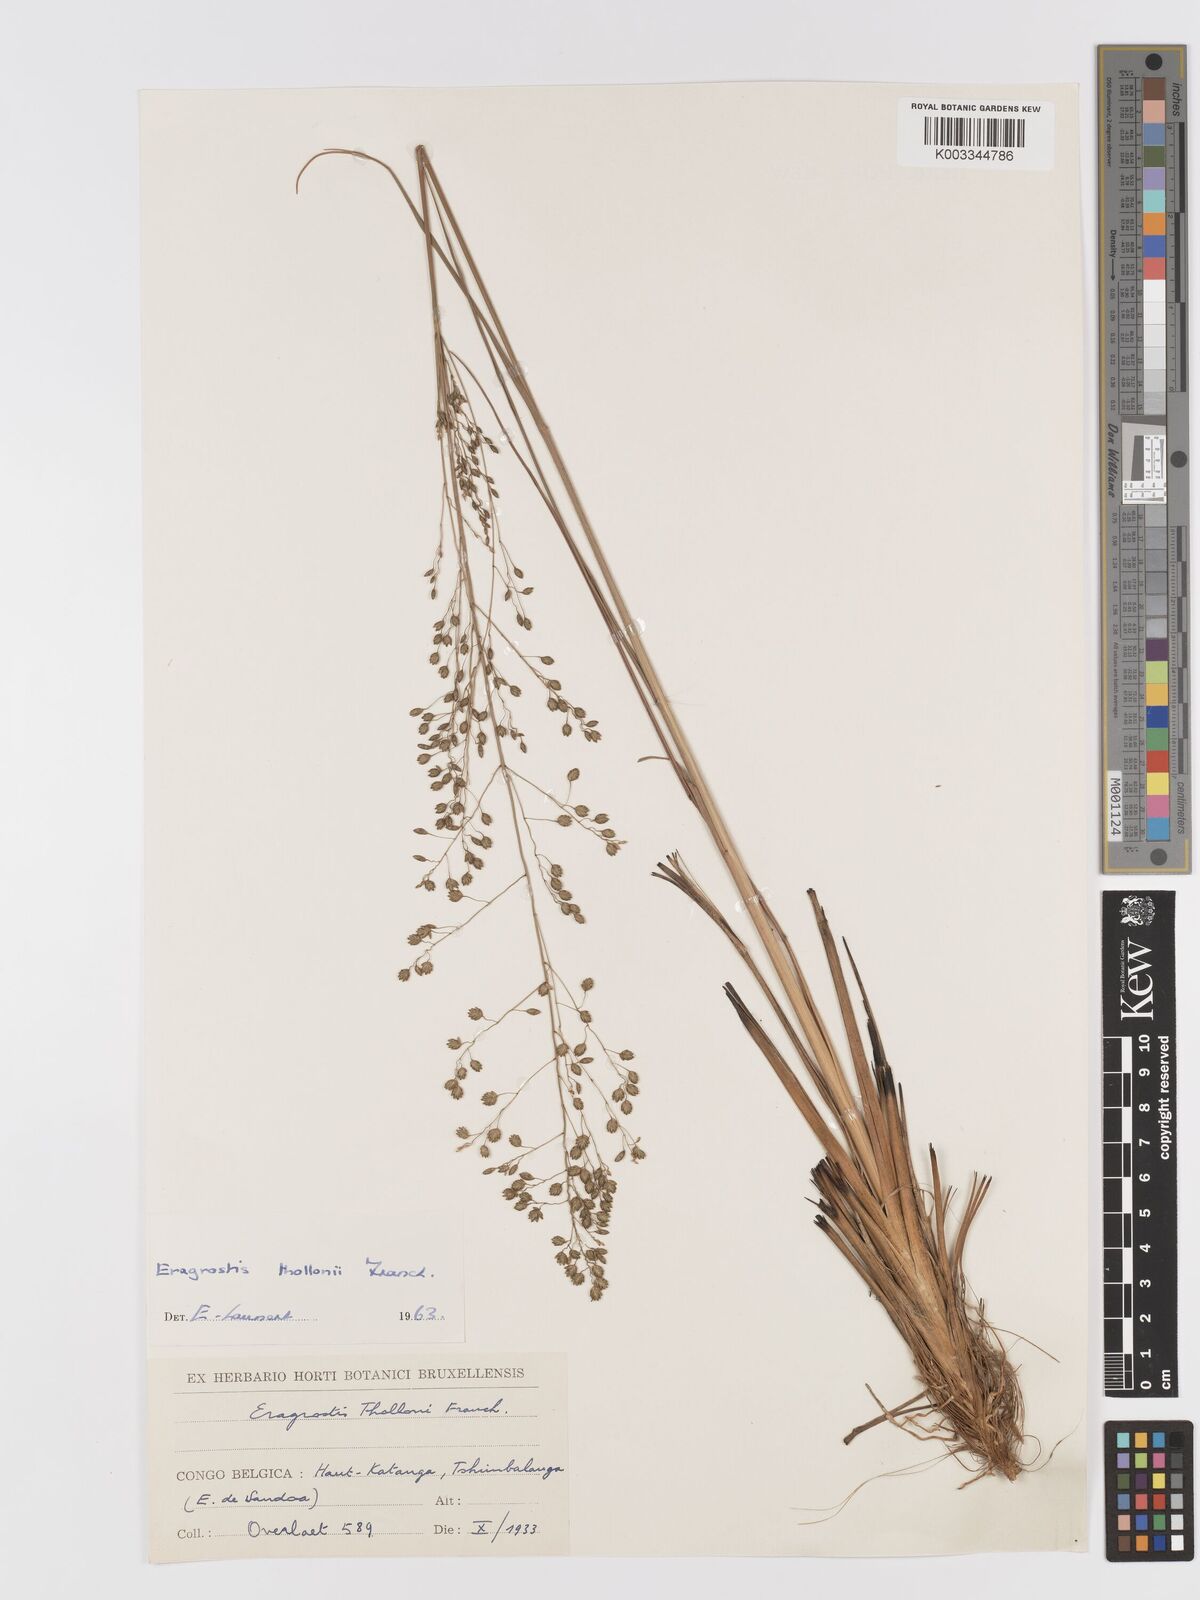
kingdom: Plantae
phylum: Tracheophyta
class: Liliopsida
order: Poales
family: Poaceae
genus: Eragrostis
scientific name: Eragrostis thollonii
